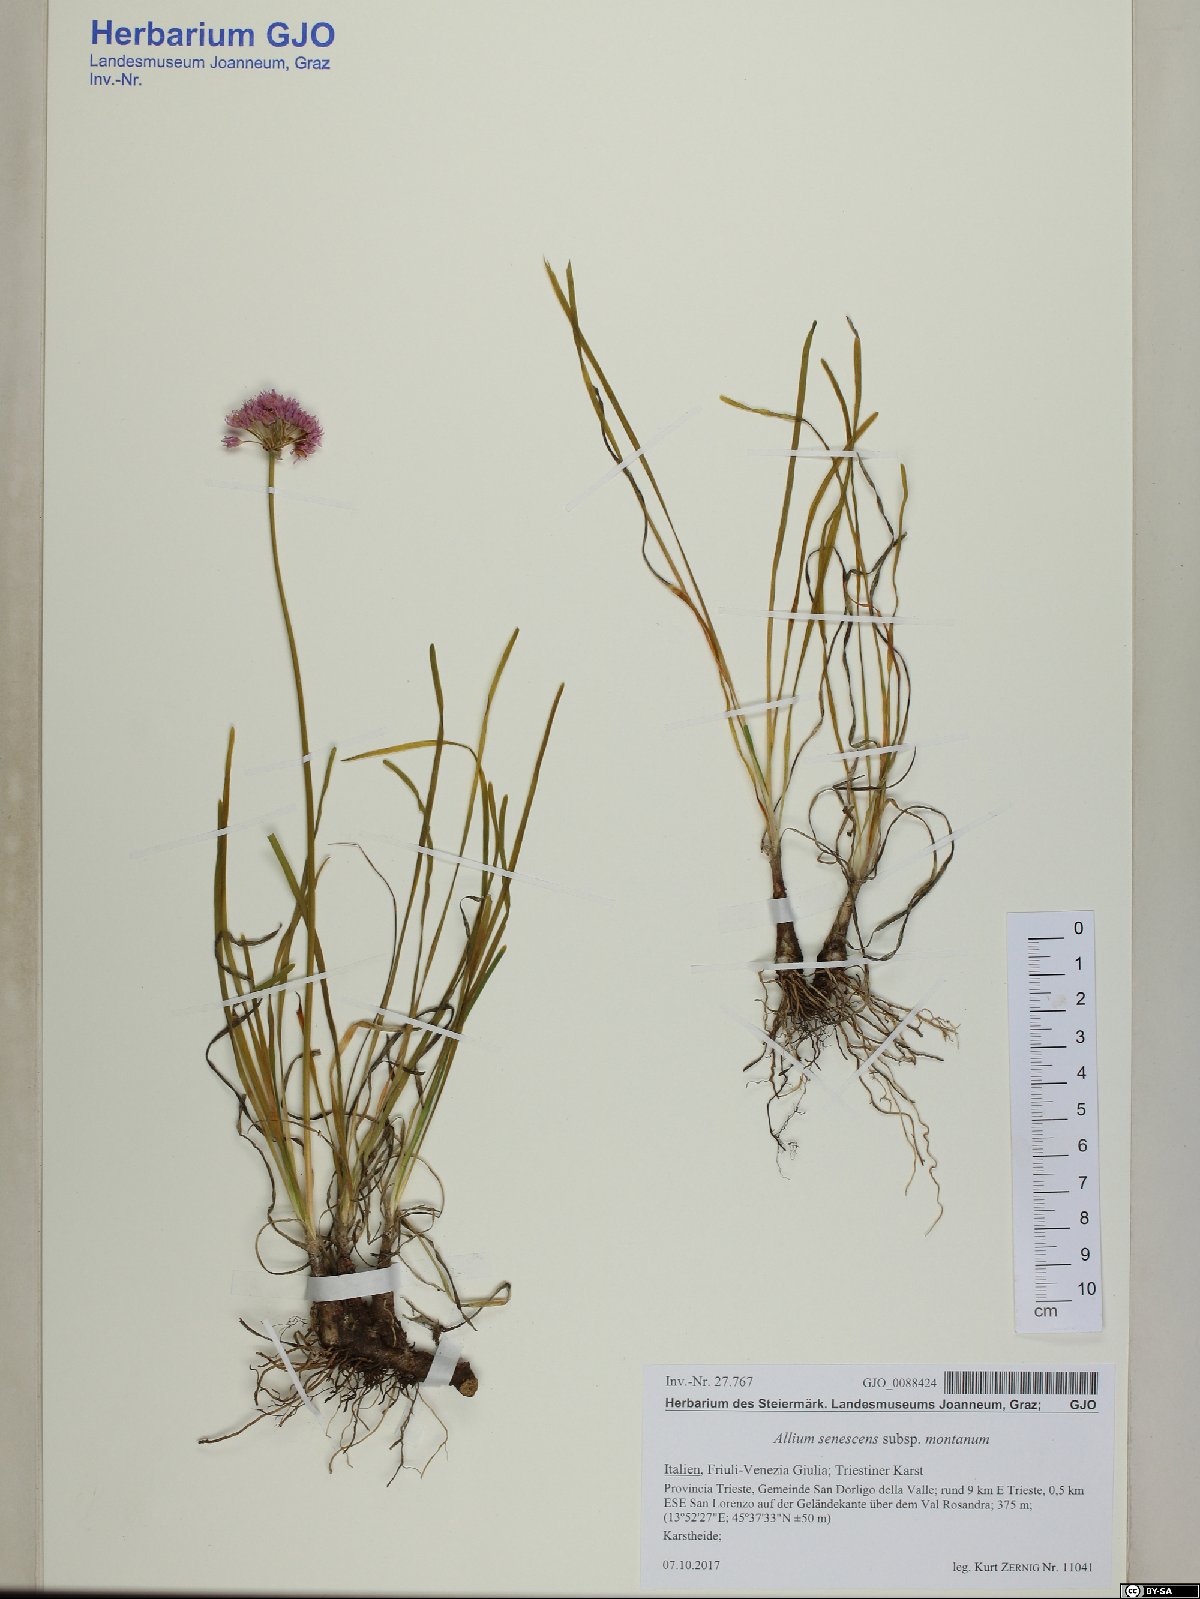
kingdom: Plantae
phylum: Tracheophyta
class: Liliopsida
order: Asparagales
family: Amaryllidaceae
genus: Allium
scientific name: Allium lusitanicum
